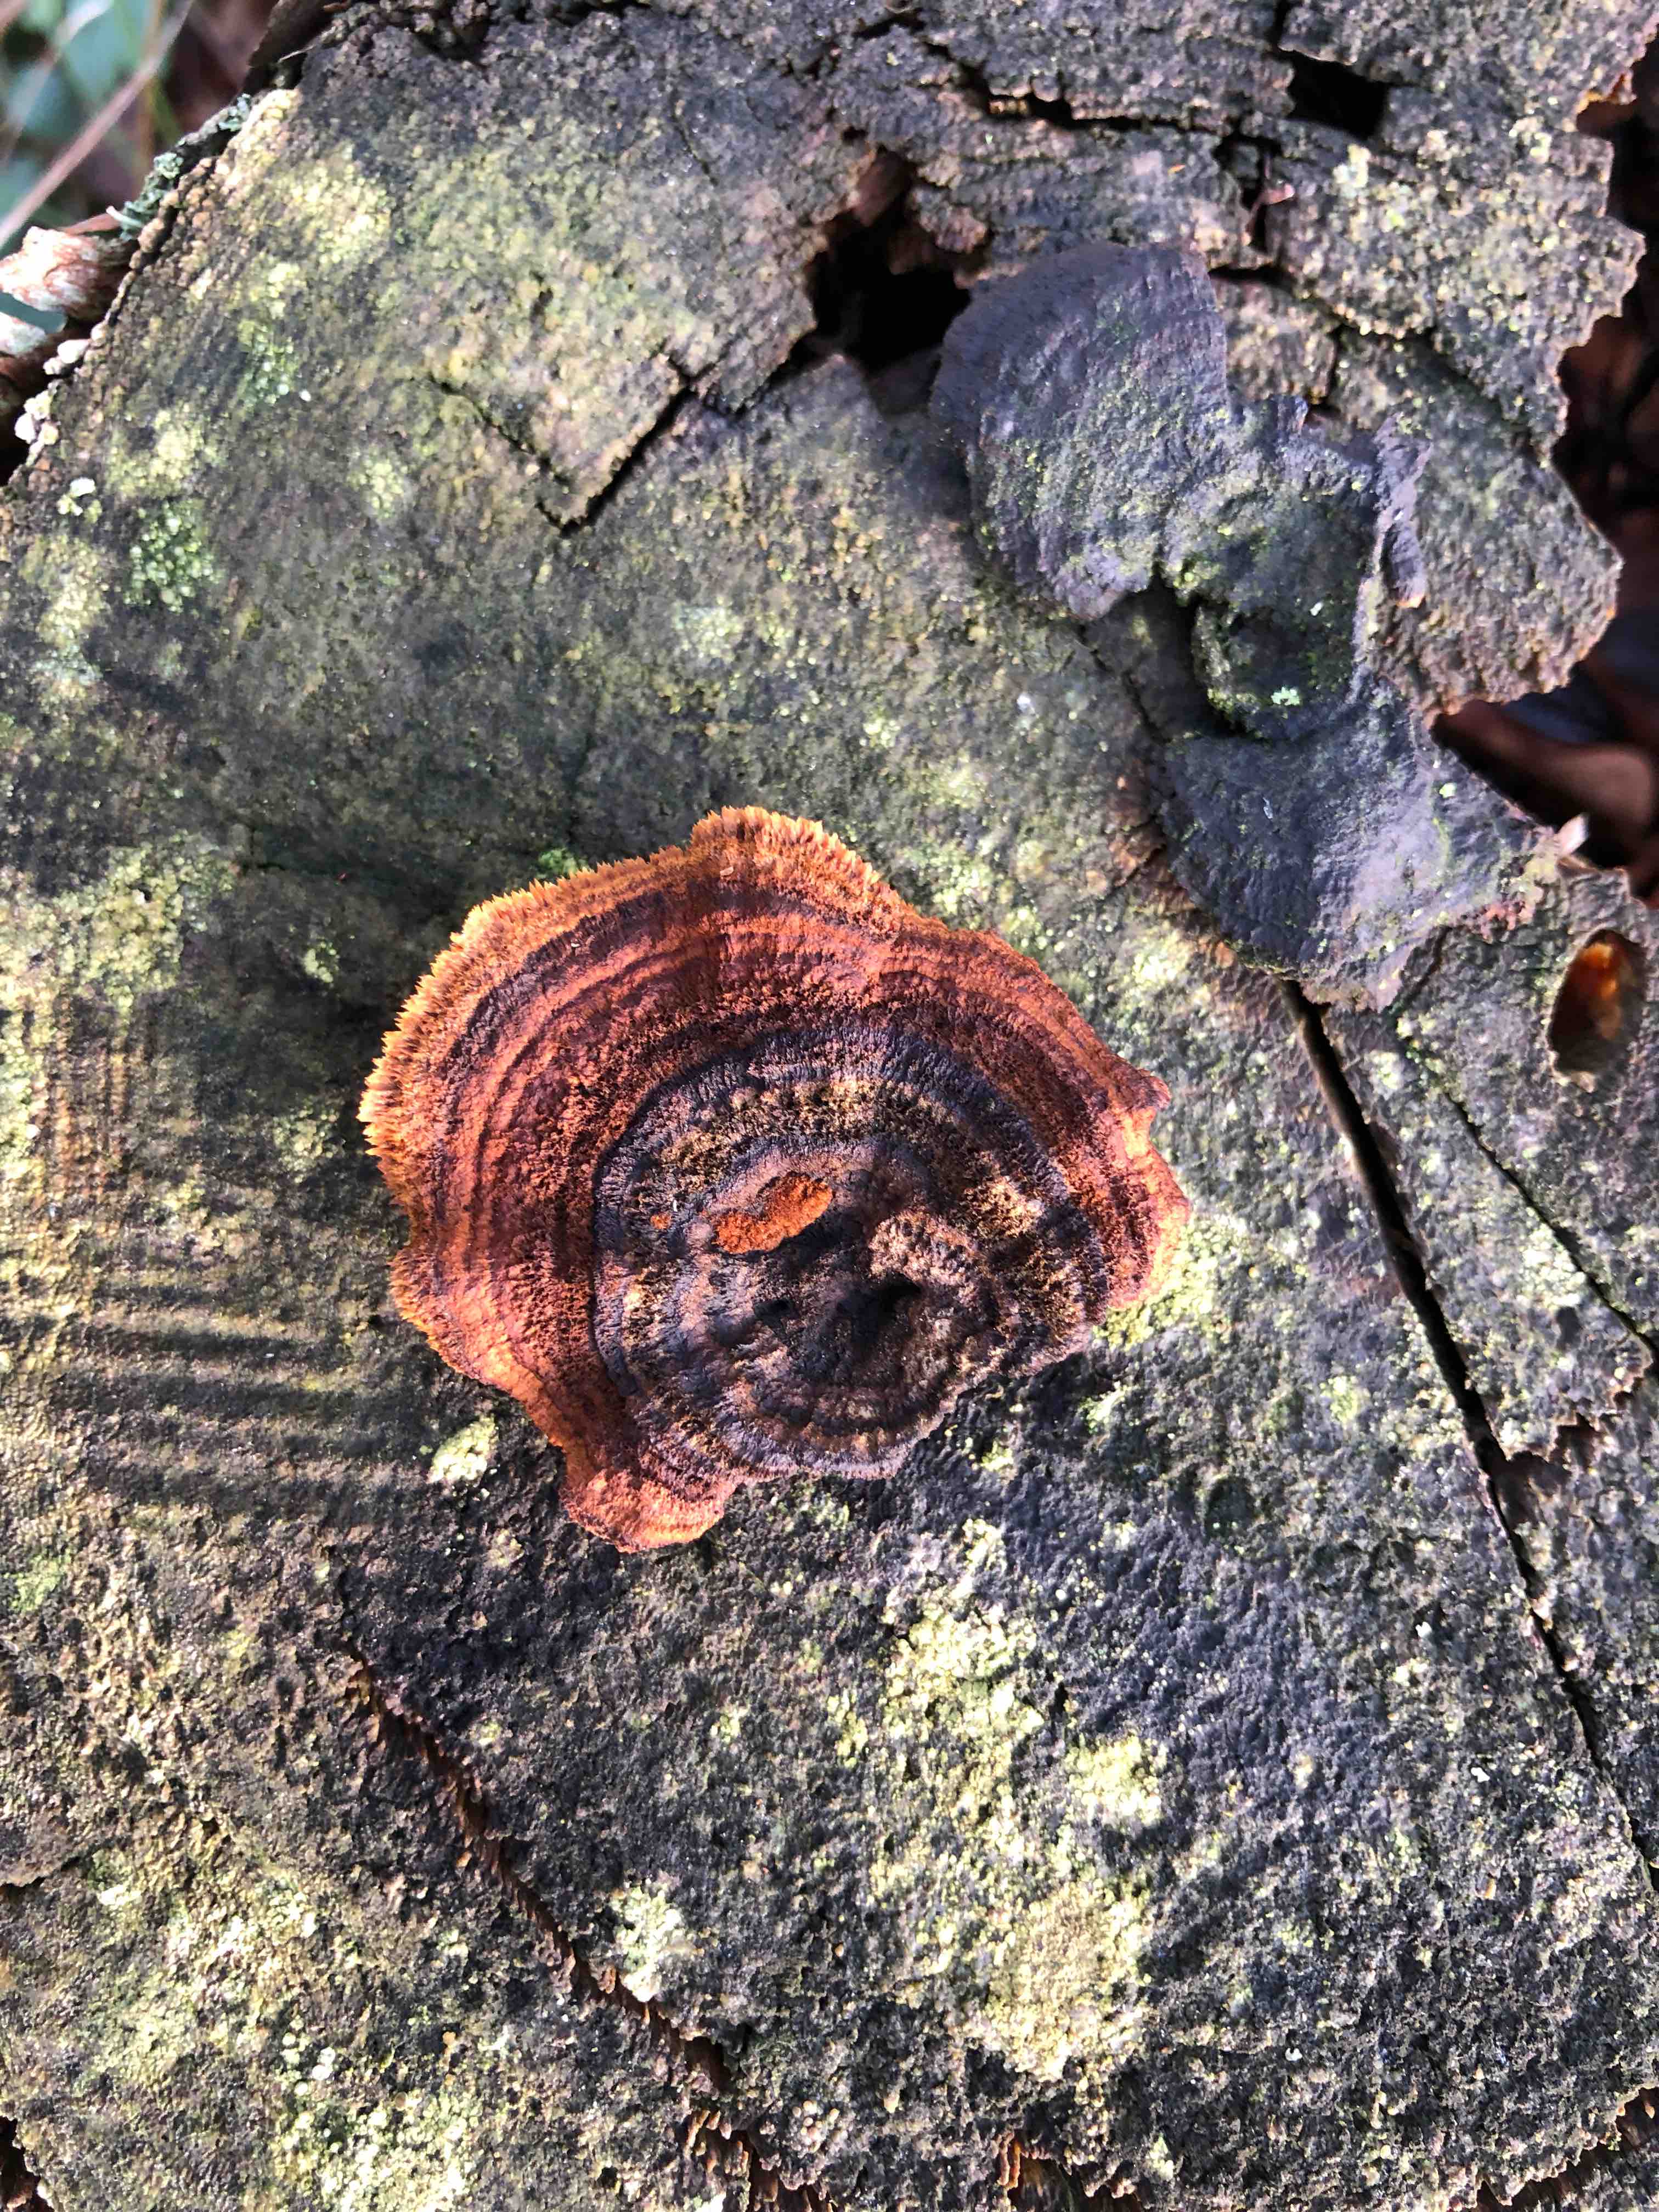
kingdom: Fungi
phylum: Basidiomycota
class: Agaricomycetes
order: Gloeophyllales
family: Gloeophyllaceae
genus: Gloeophyllum
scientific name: Gloeophyllum sepiarium
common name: fyrre-korkhat
